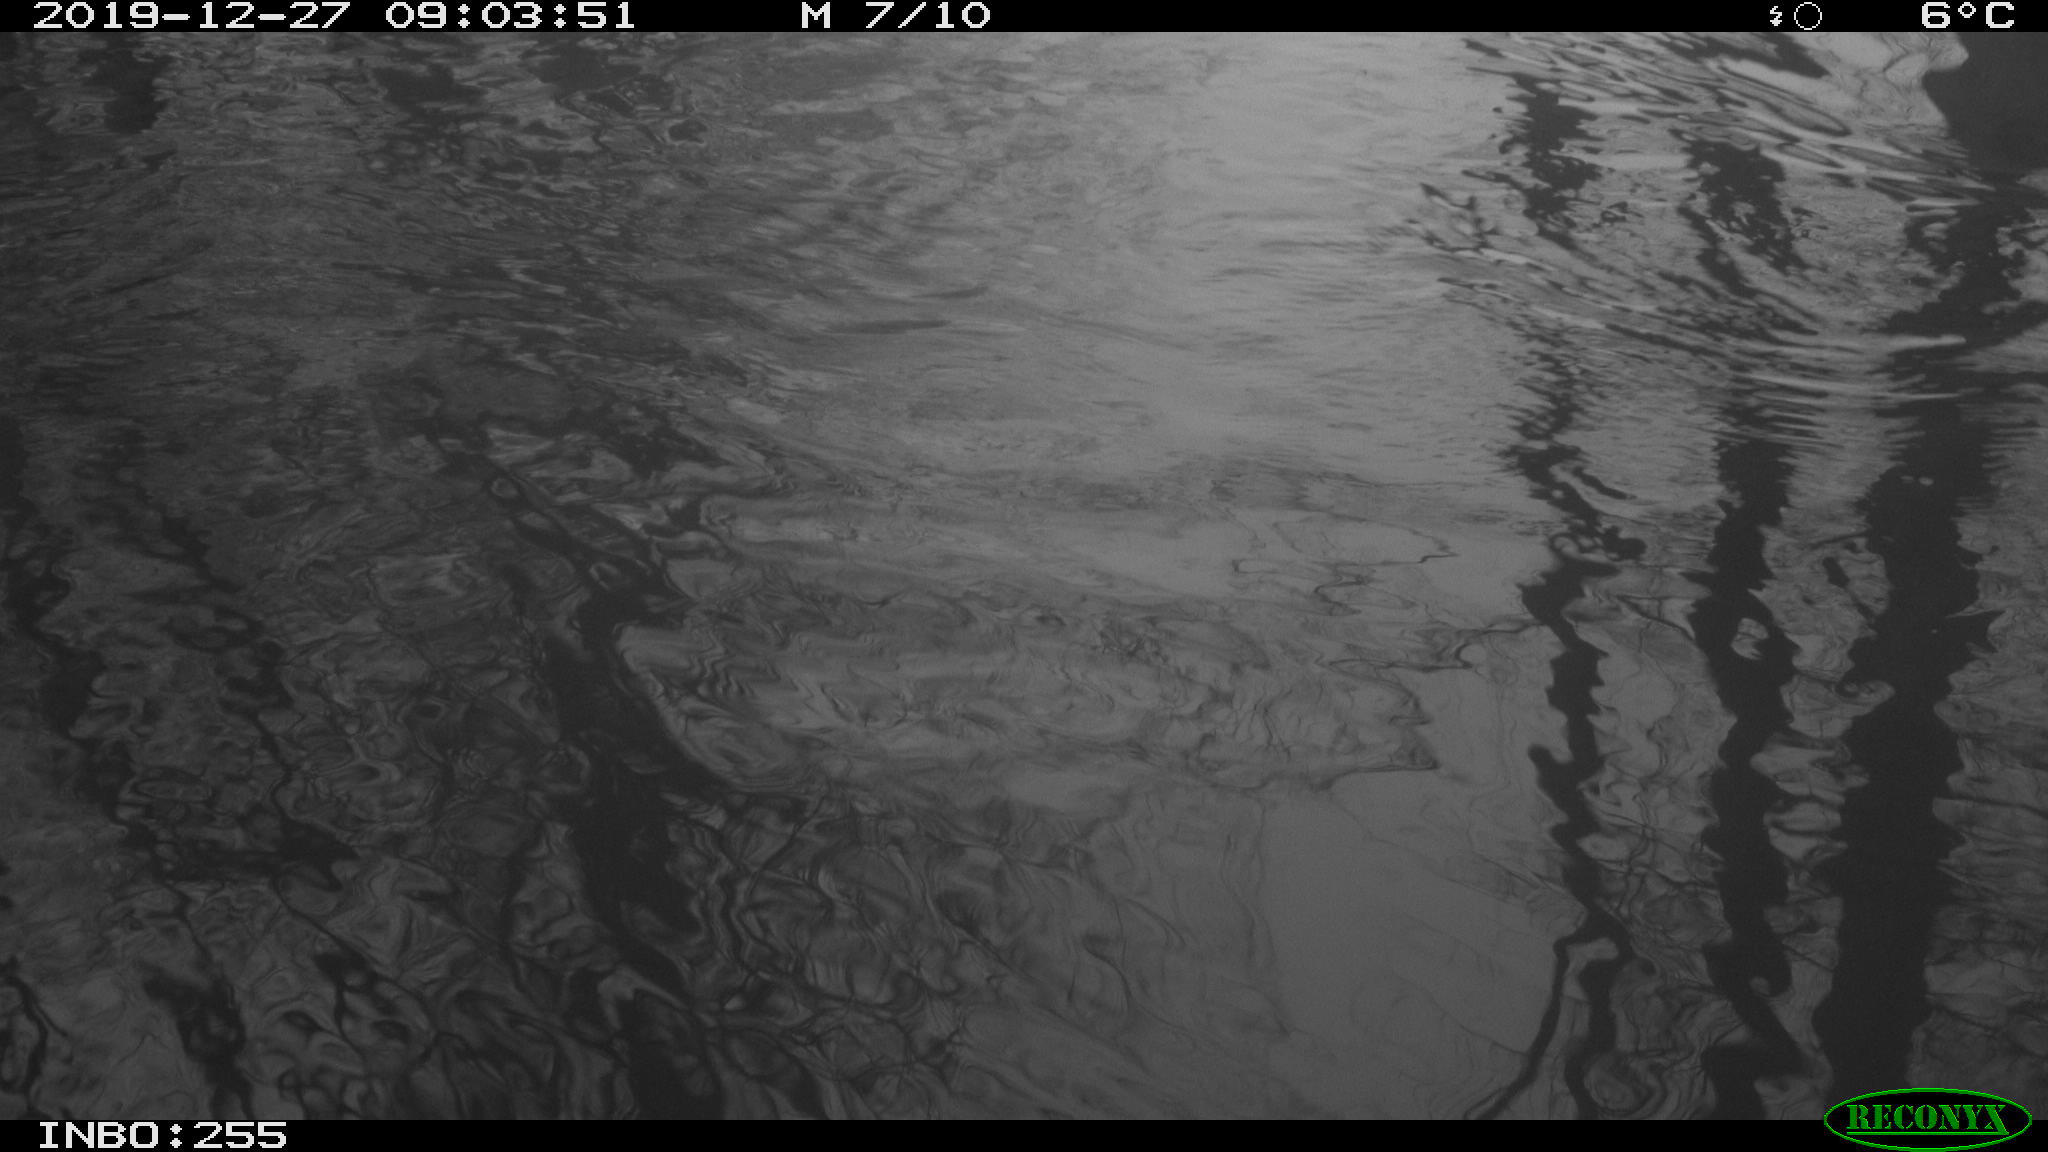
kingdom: Animalia
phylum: Chordata
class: Aves
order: Gruiformes
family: Rallidae
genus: Gallinula
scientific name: Gallinula chloropus
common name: Common moorhen
